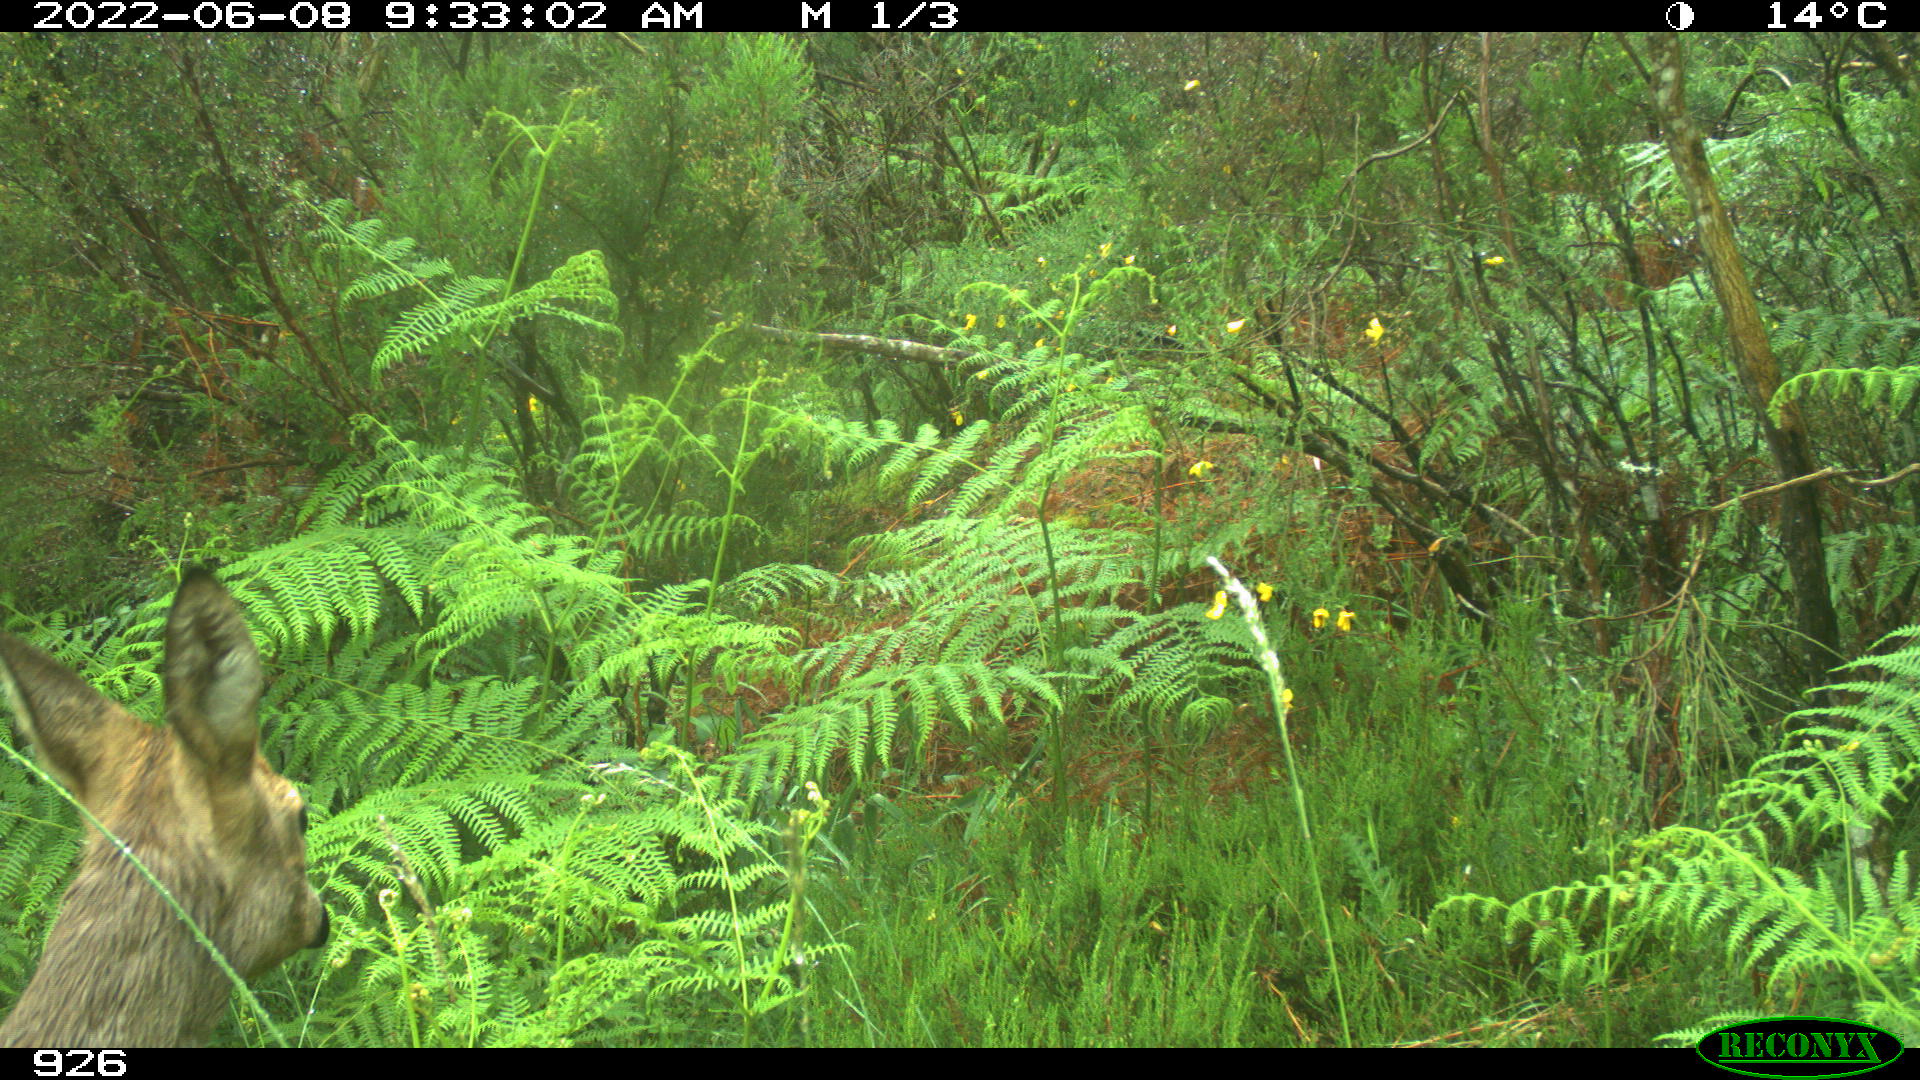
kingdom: Animalia
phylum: Chordata
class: Mammalia
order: Artiodactyla
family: Cervidae
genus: Capreolus
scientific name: Capreolus capreolus
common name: Western roe deer
